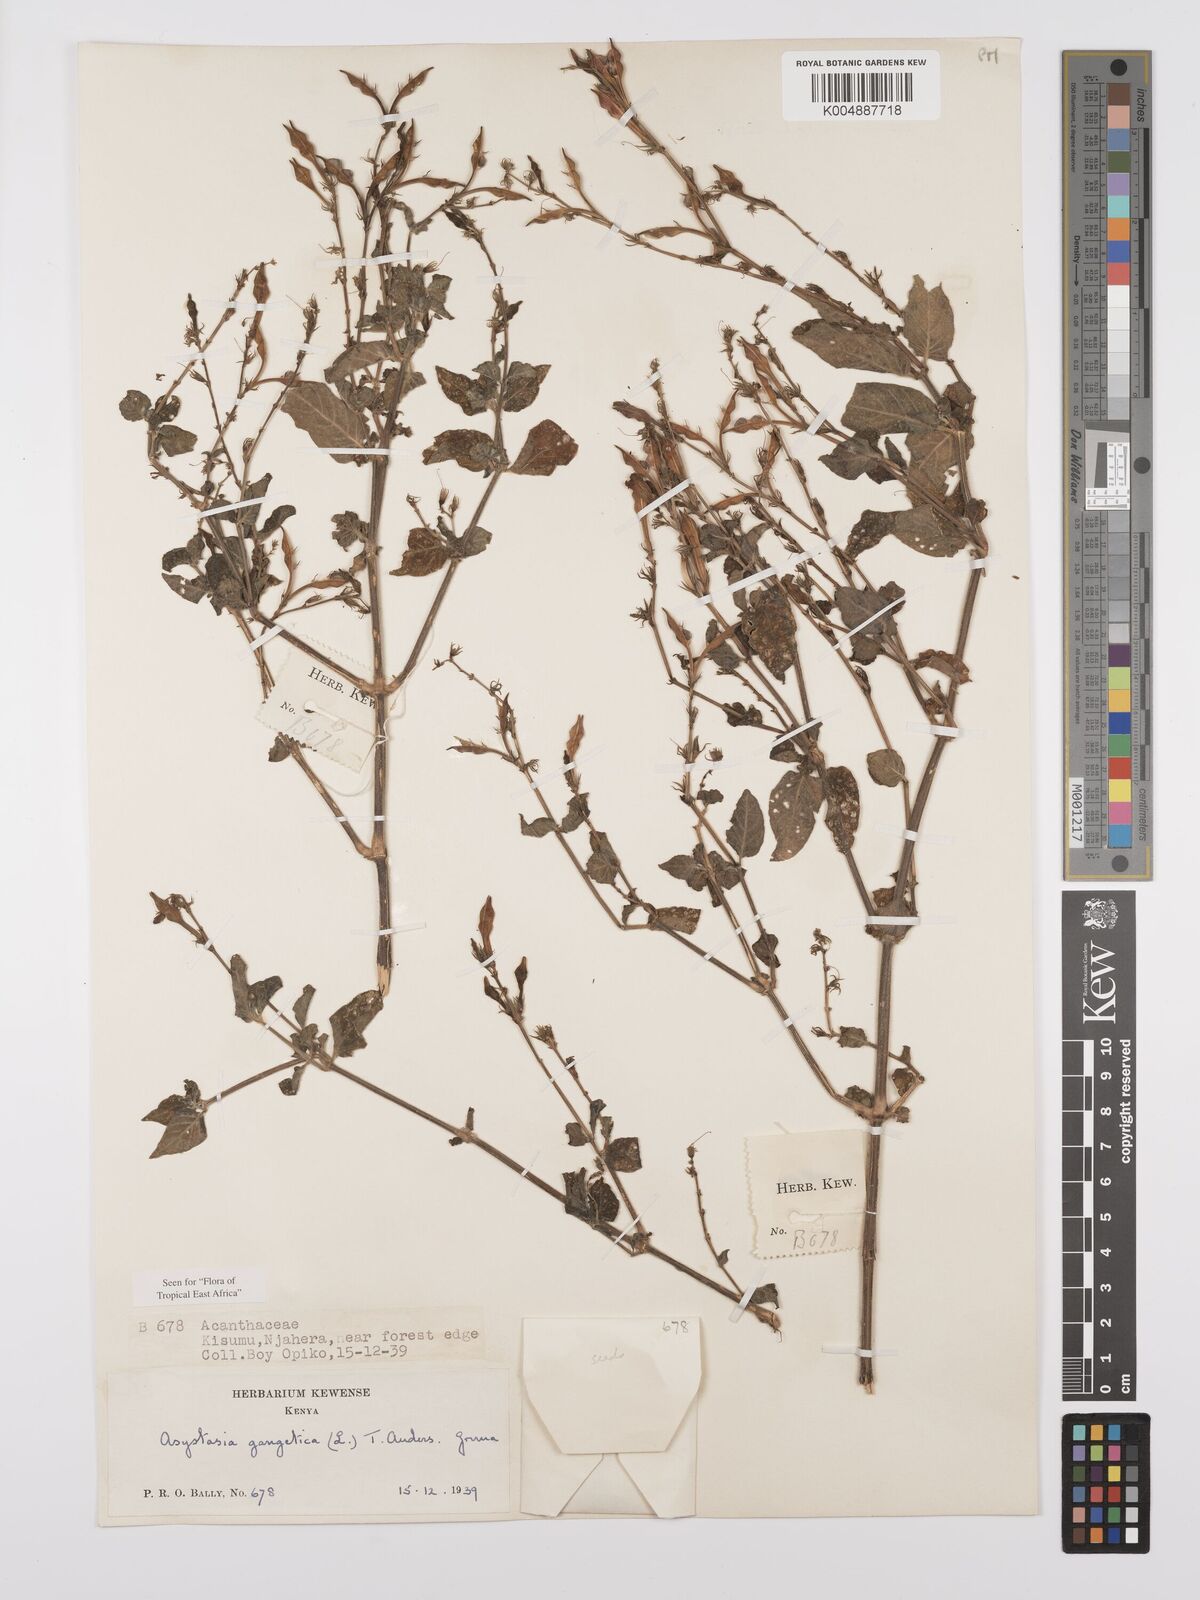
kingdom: Plantae
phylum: Tracheophyta
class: Magnoliopsida
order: Lamiales
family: Acanthaceae
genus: Asystasia
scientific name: Asystasia gangetica
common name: Chinese violet
